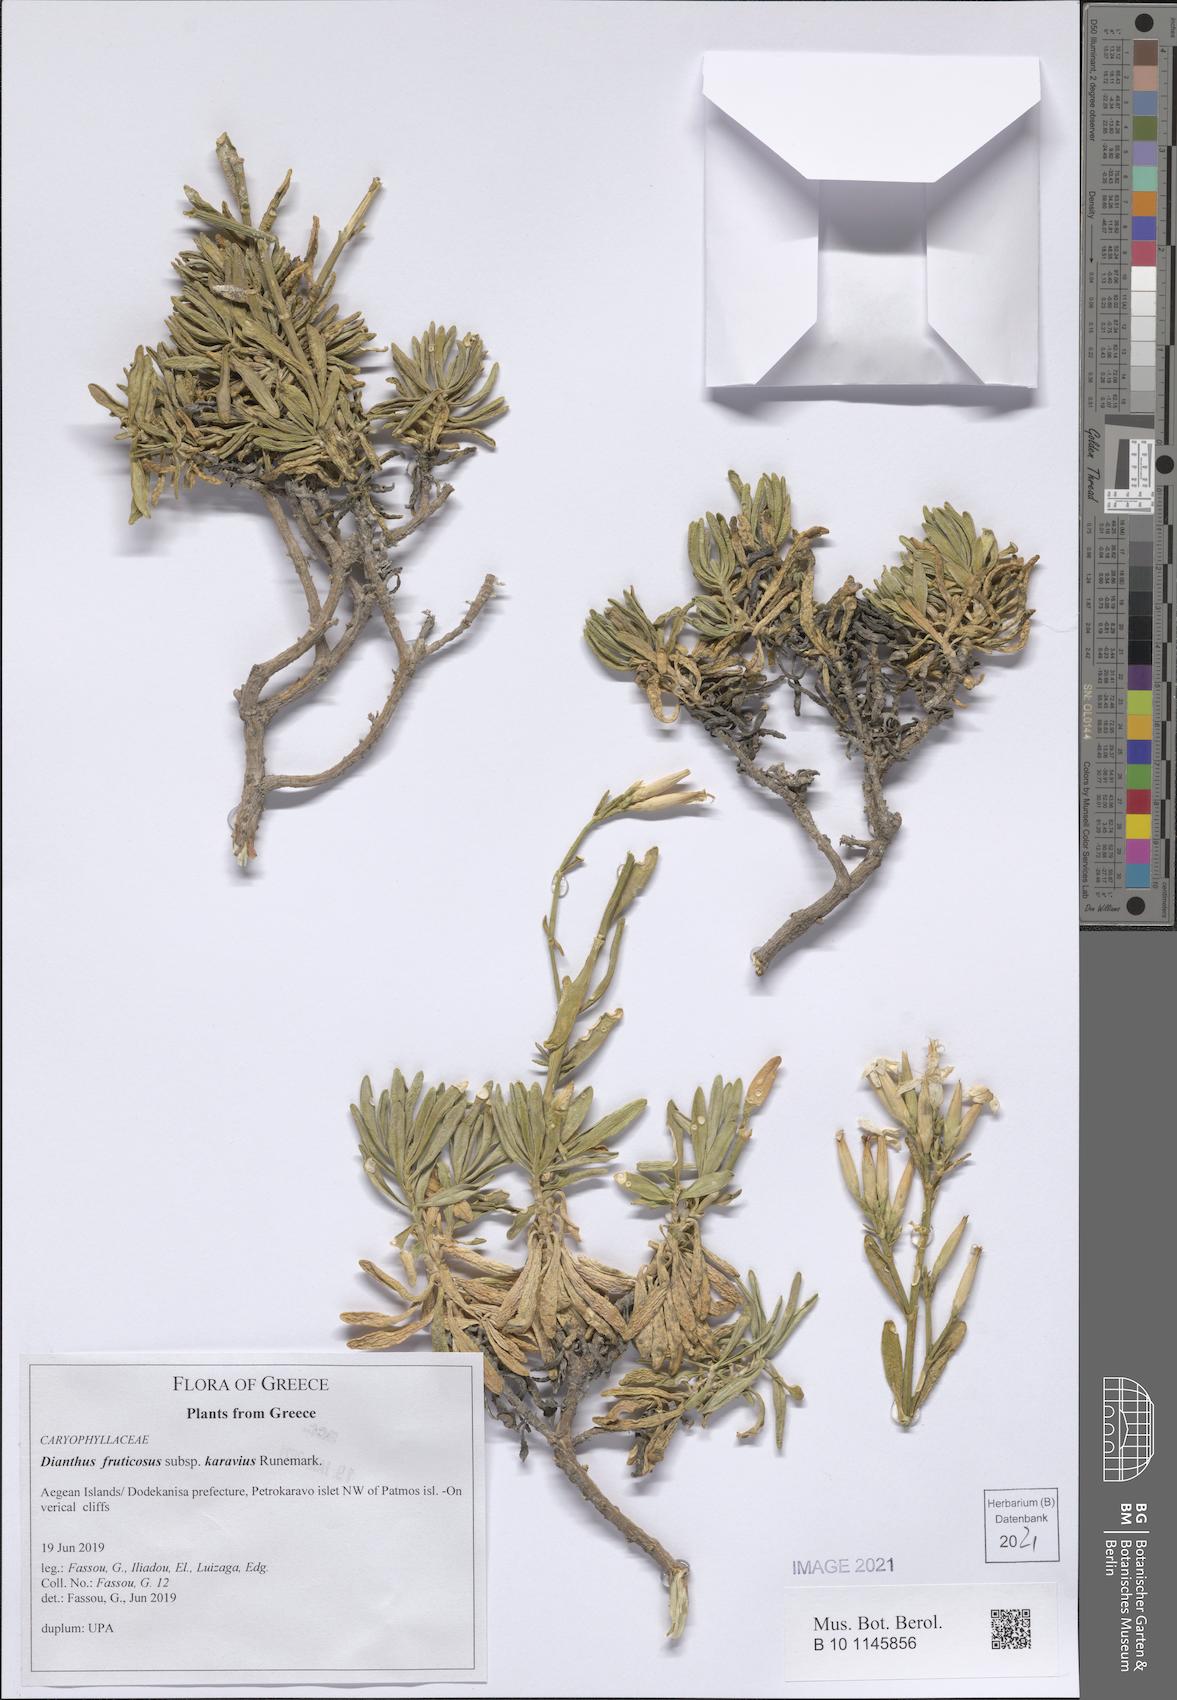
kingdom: Plantae
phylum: Tracheophyta
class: Magnoliopsida
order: Caryophyllales
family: Caryophyllaceae
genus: Dianthus
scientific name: Dianthus fruticosus
